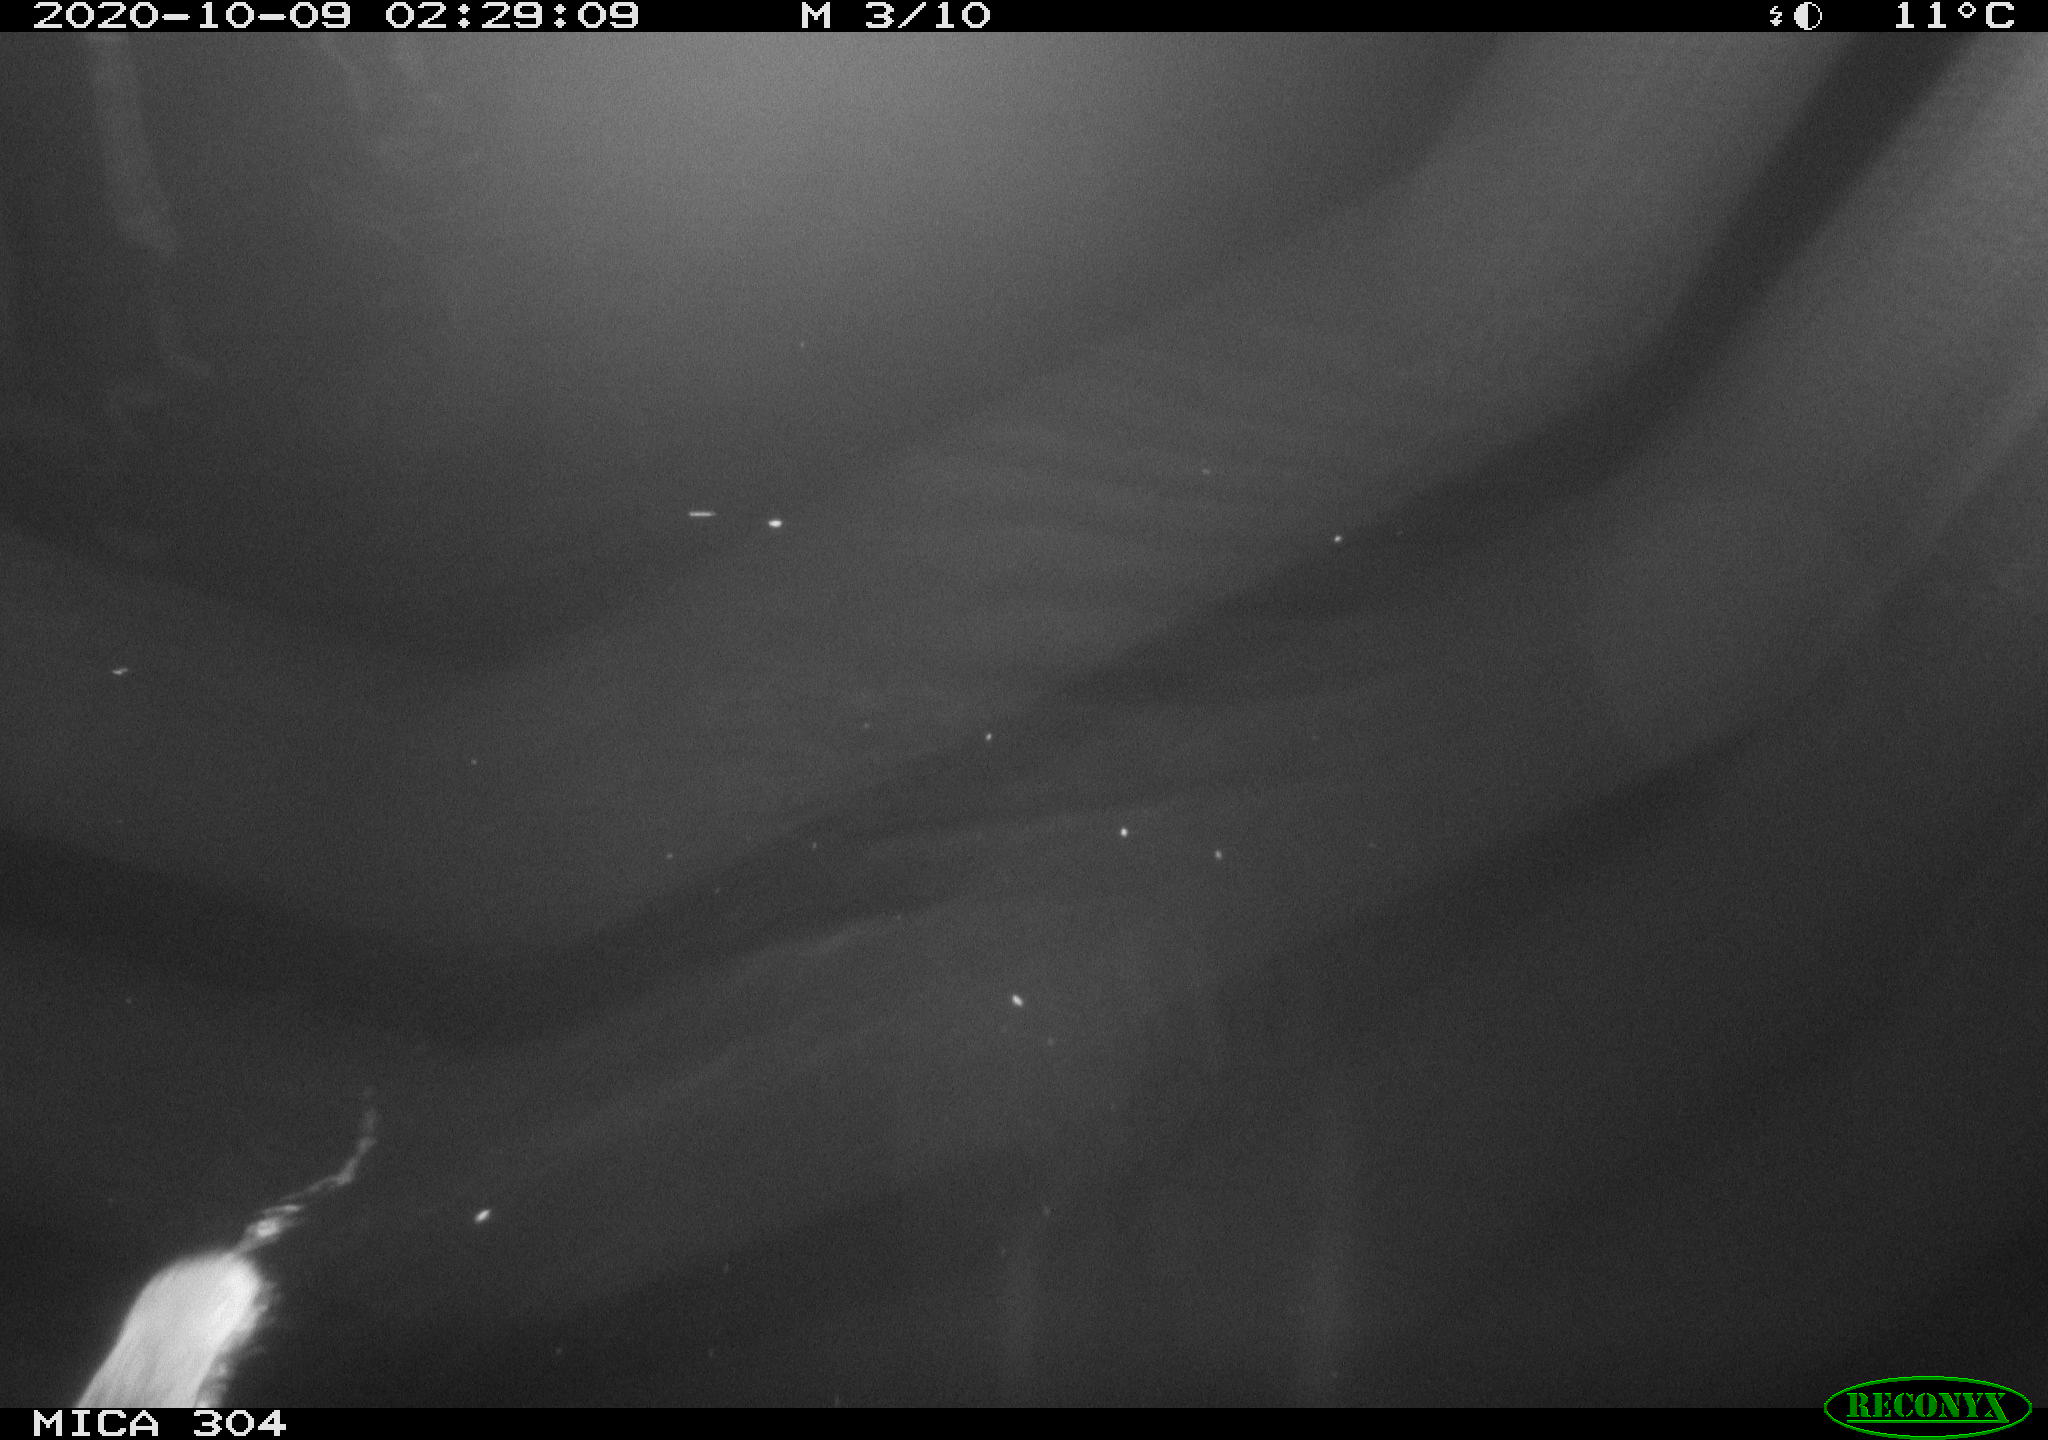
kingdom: Animalia
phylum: Chordata
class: Mammalia
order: Rodentia
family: Muridae
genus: Rattus
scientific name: Rattus norvegicus
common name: Brown rat
